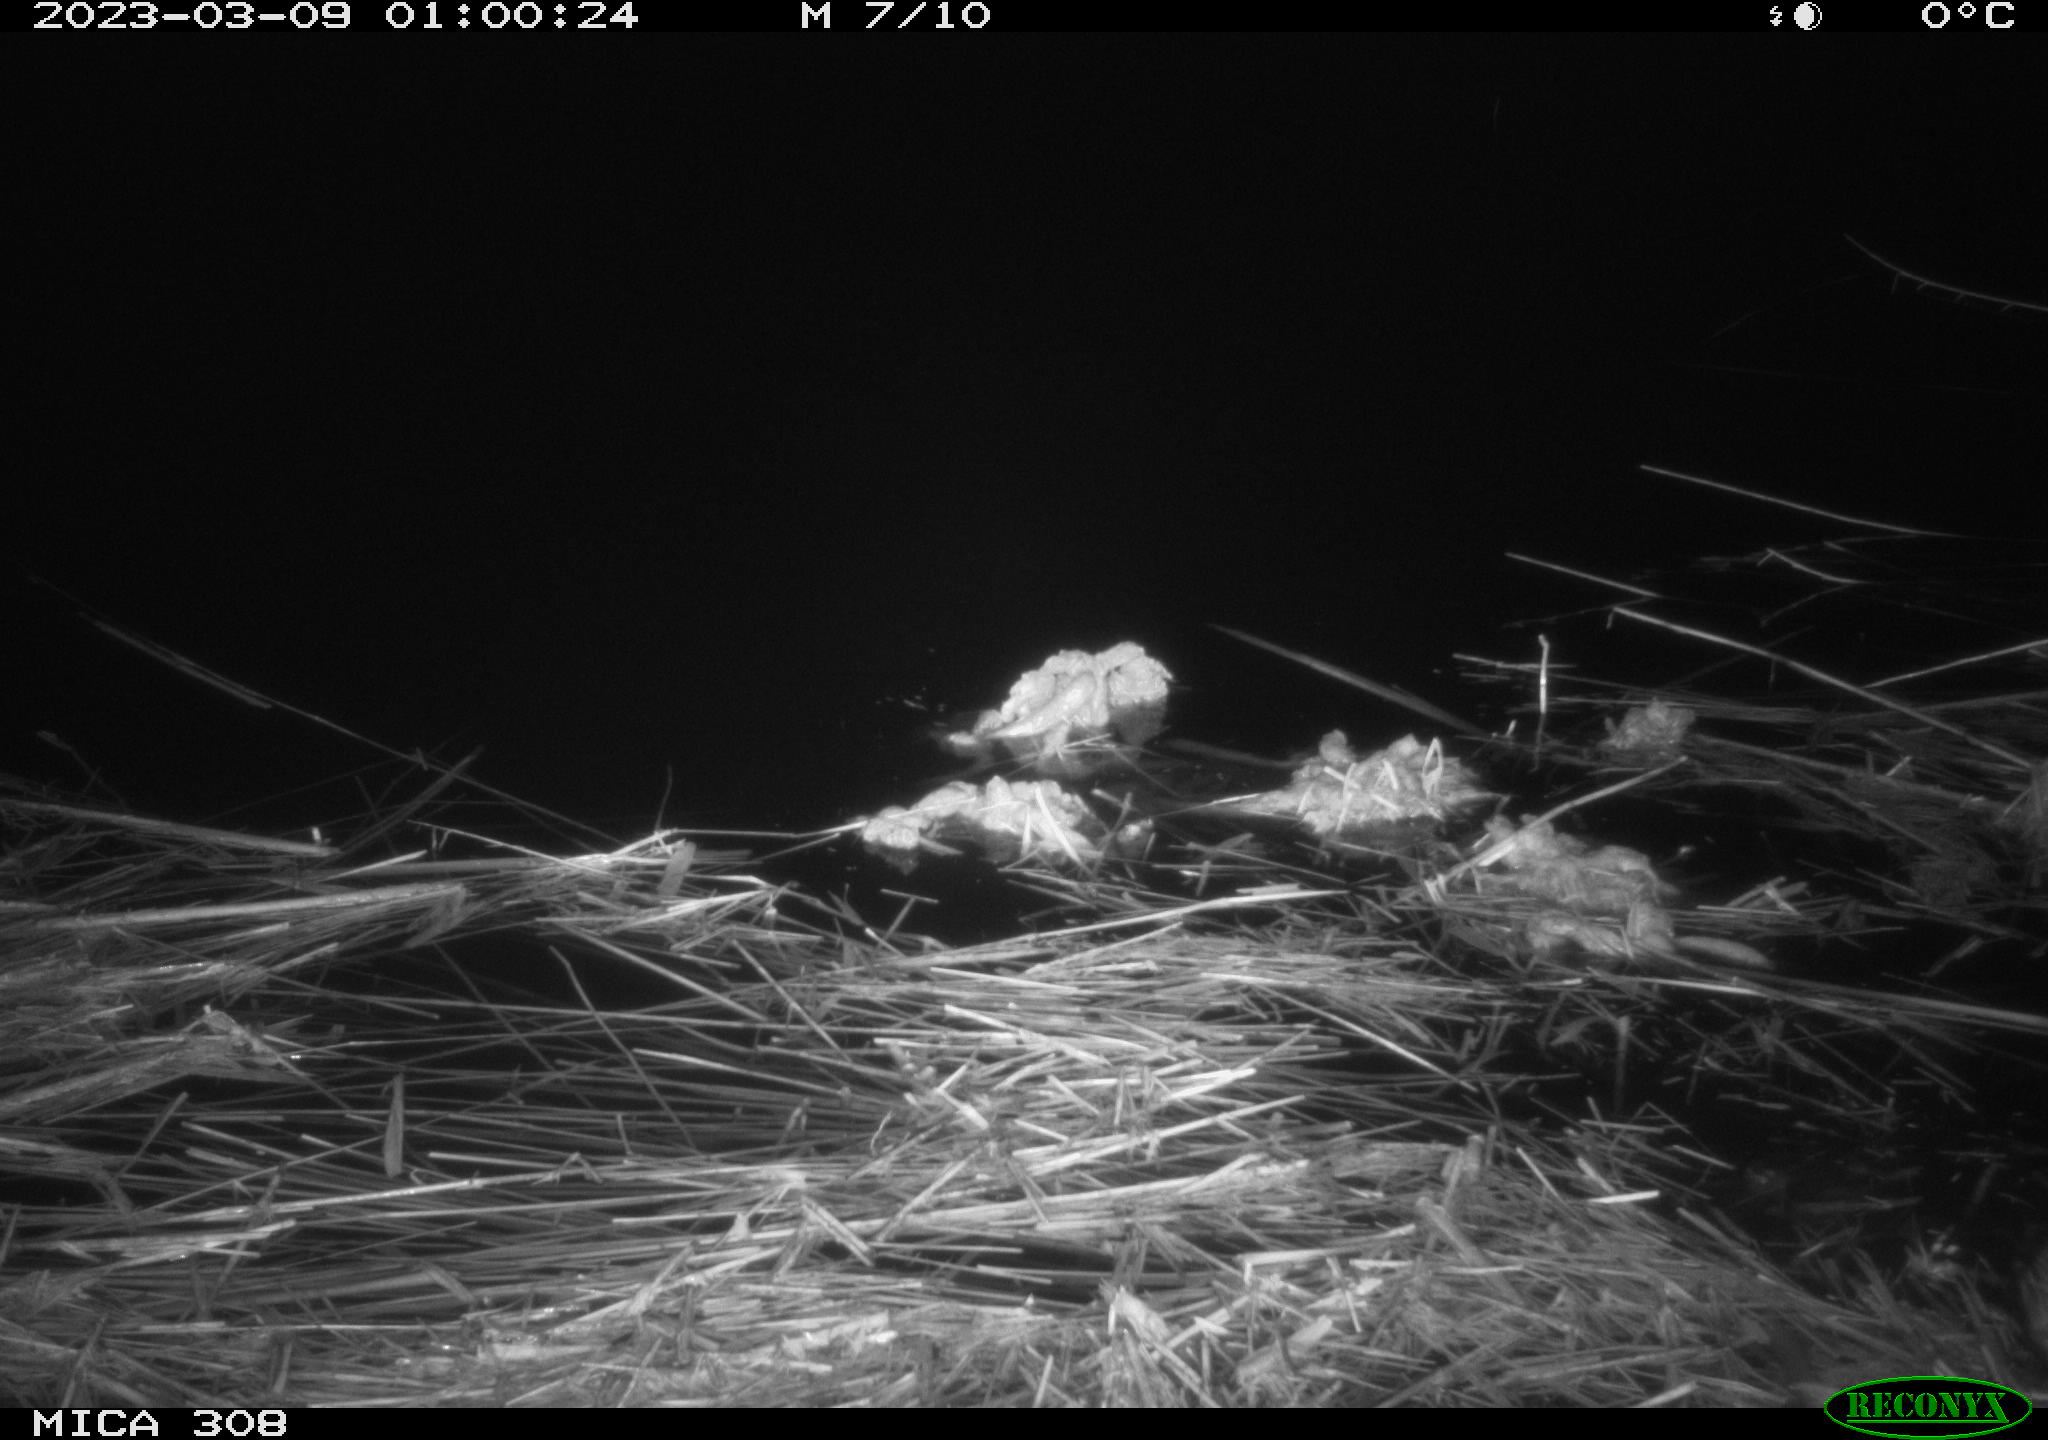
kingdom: Animalia
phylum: Chordata
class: Mammalia
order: Rodentia
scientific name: Rodentia
